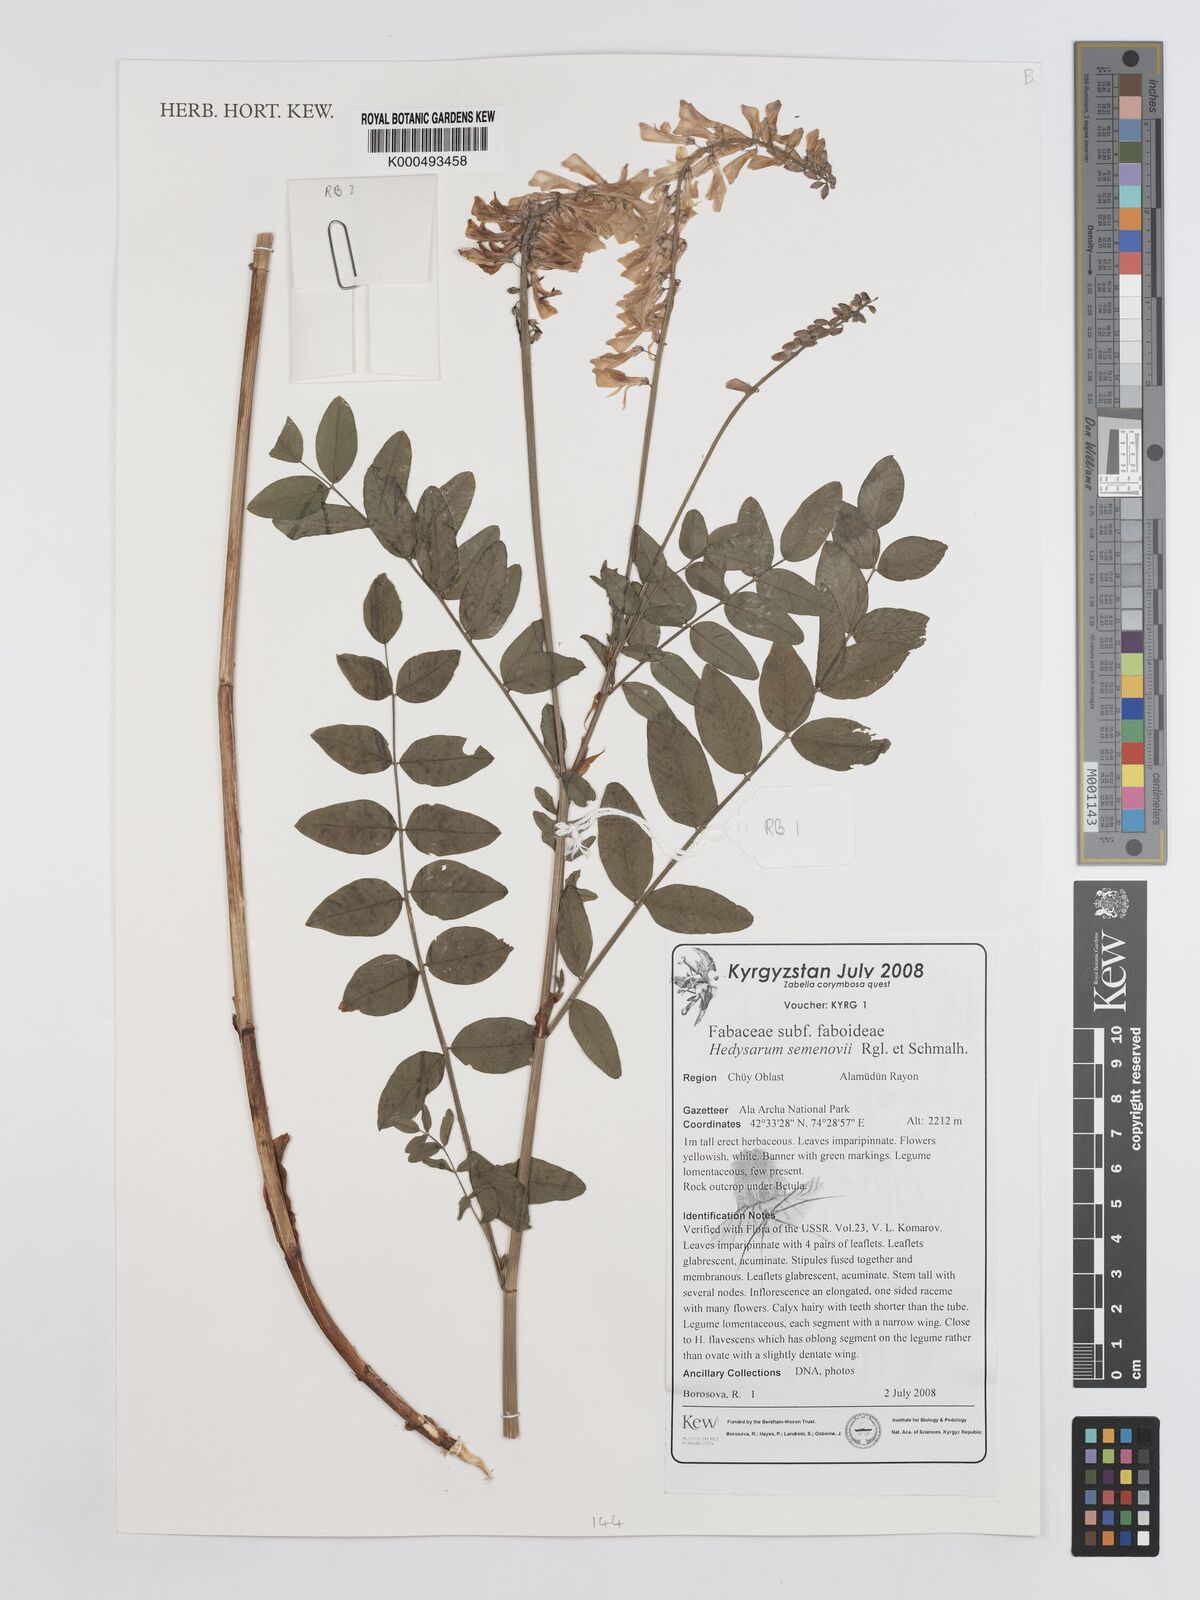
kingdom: Plantae
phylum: Tracheophyta
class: Magnoliopsida
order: Fabales
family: Fabaceae
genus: Hedysarum
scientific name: Hedysarum
